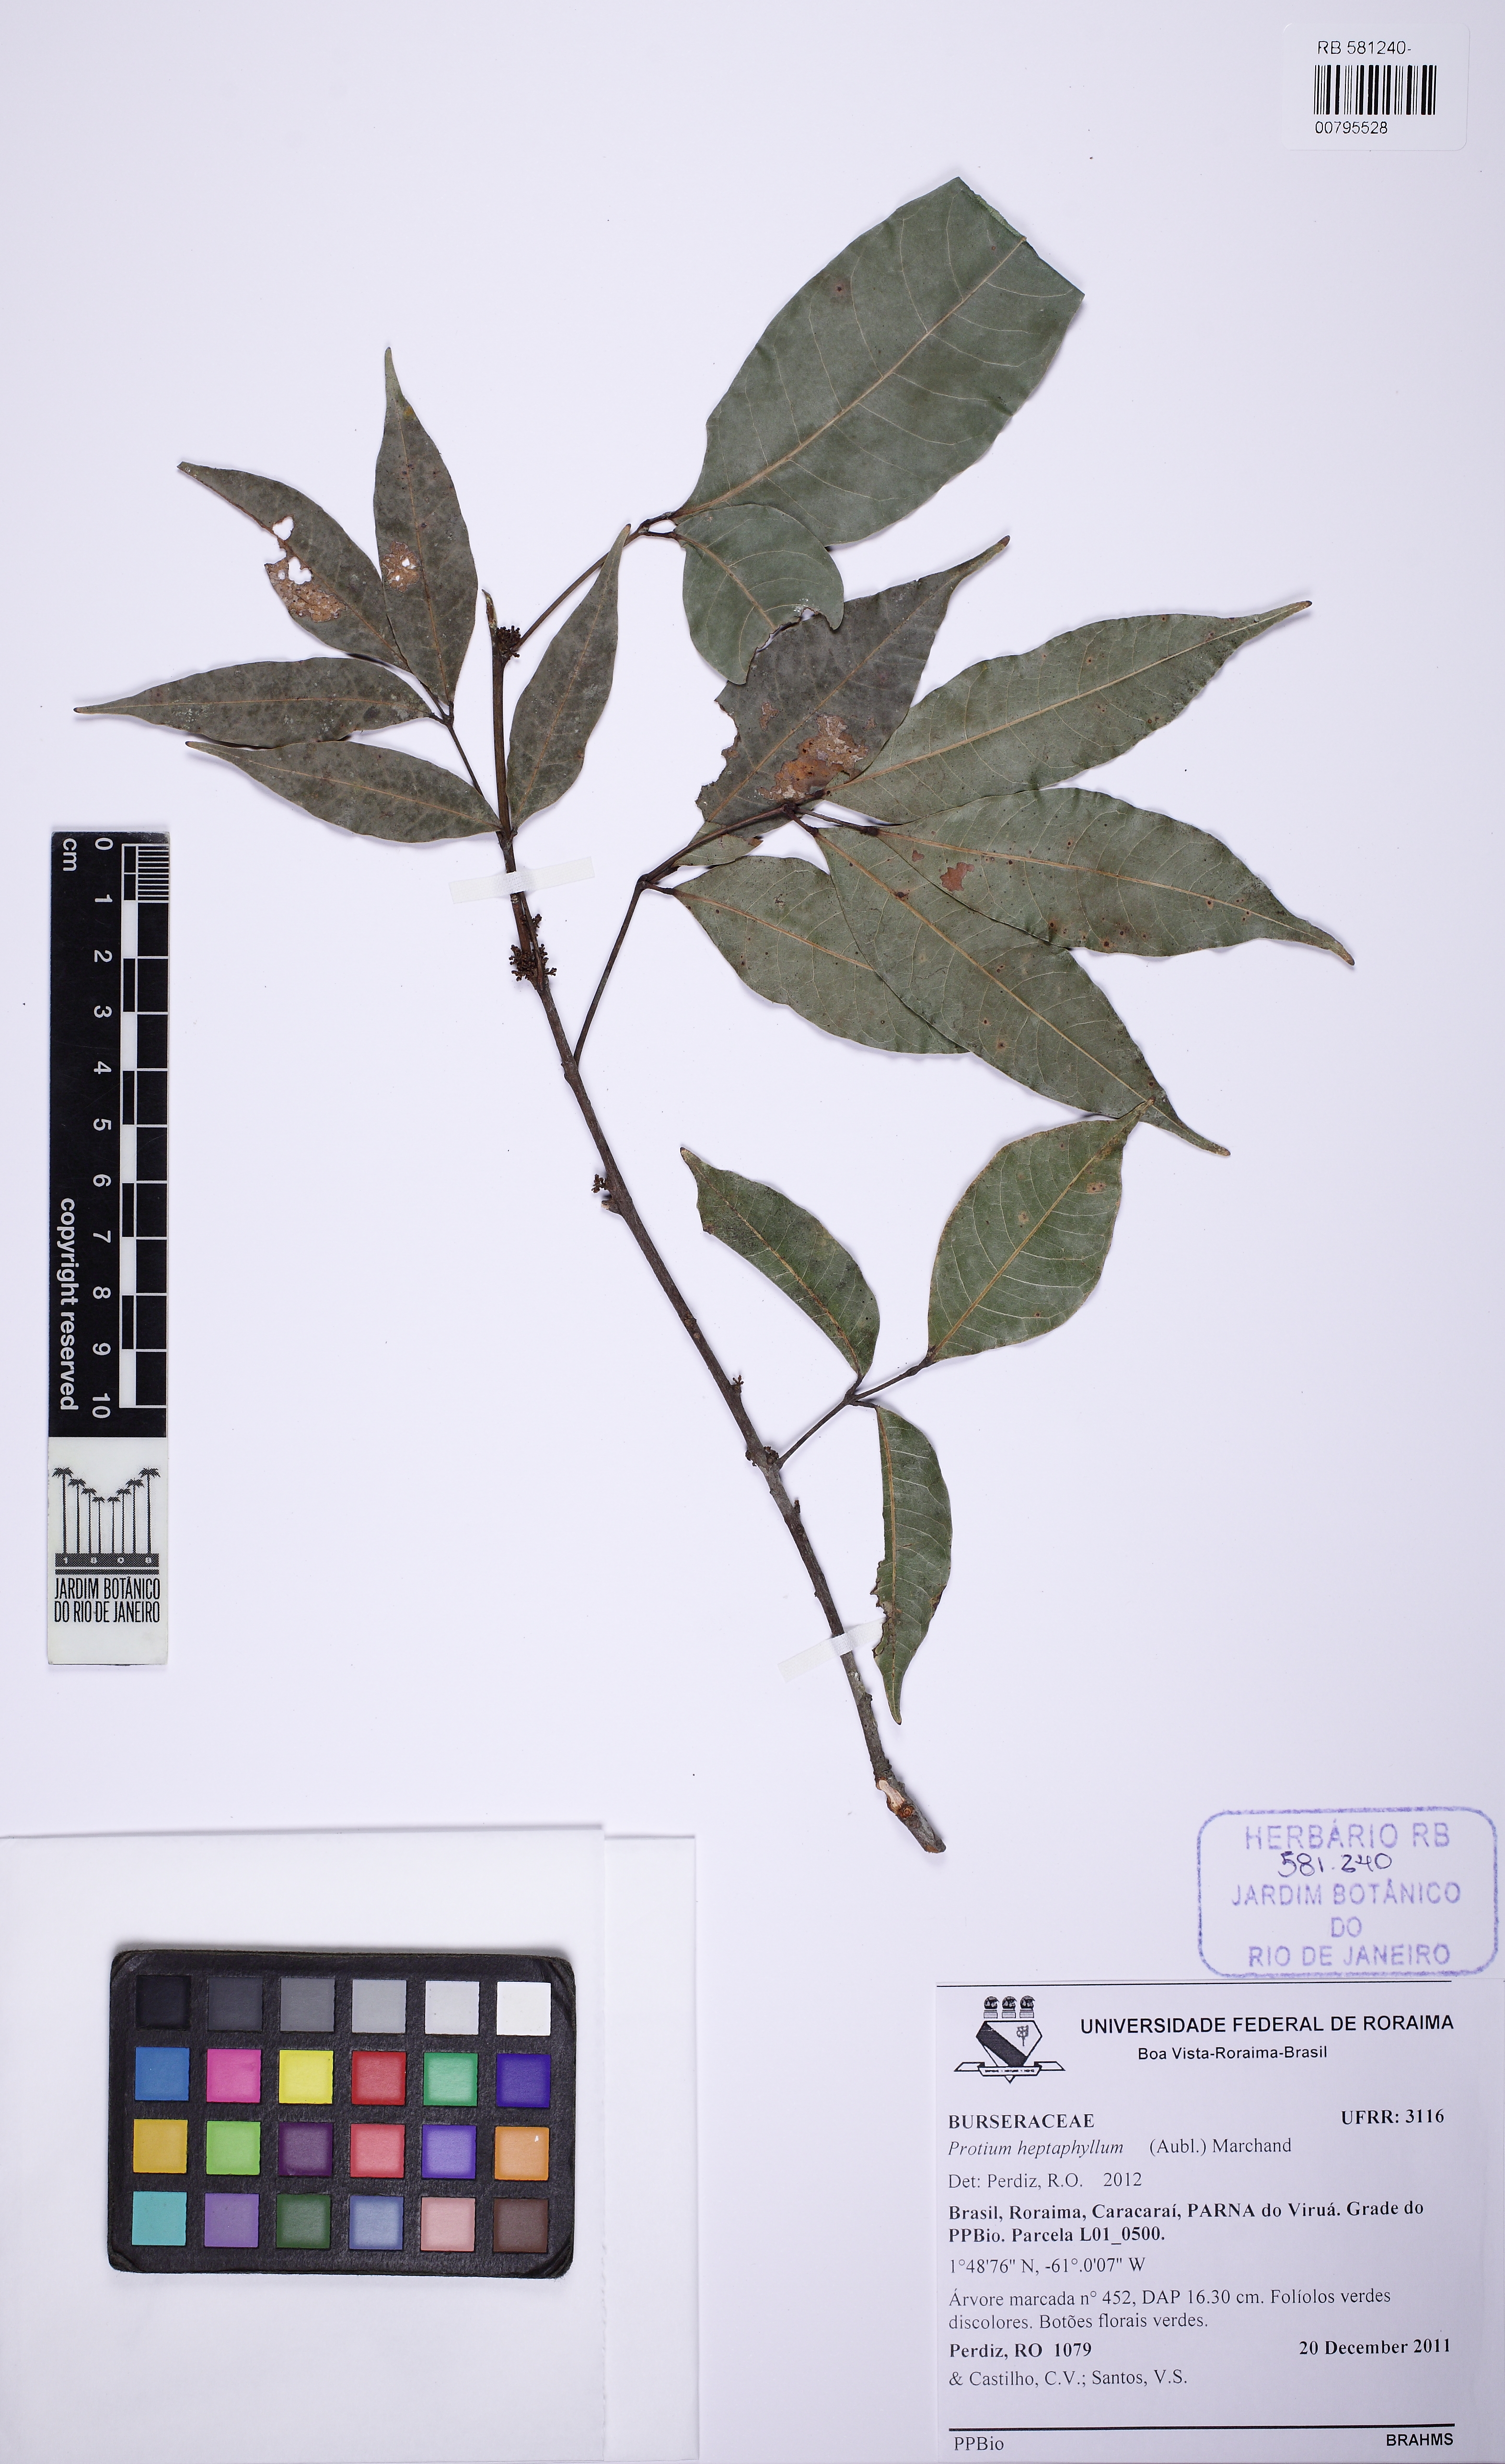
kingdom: Plantae
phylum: Tracheophyta
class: Magnoliopsida
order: Sapindales
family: Burseraceae
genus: Protium
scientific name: Protium heptaphyllum
